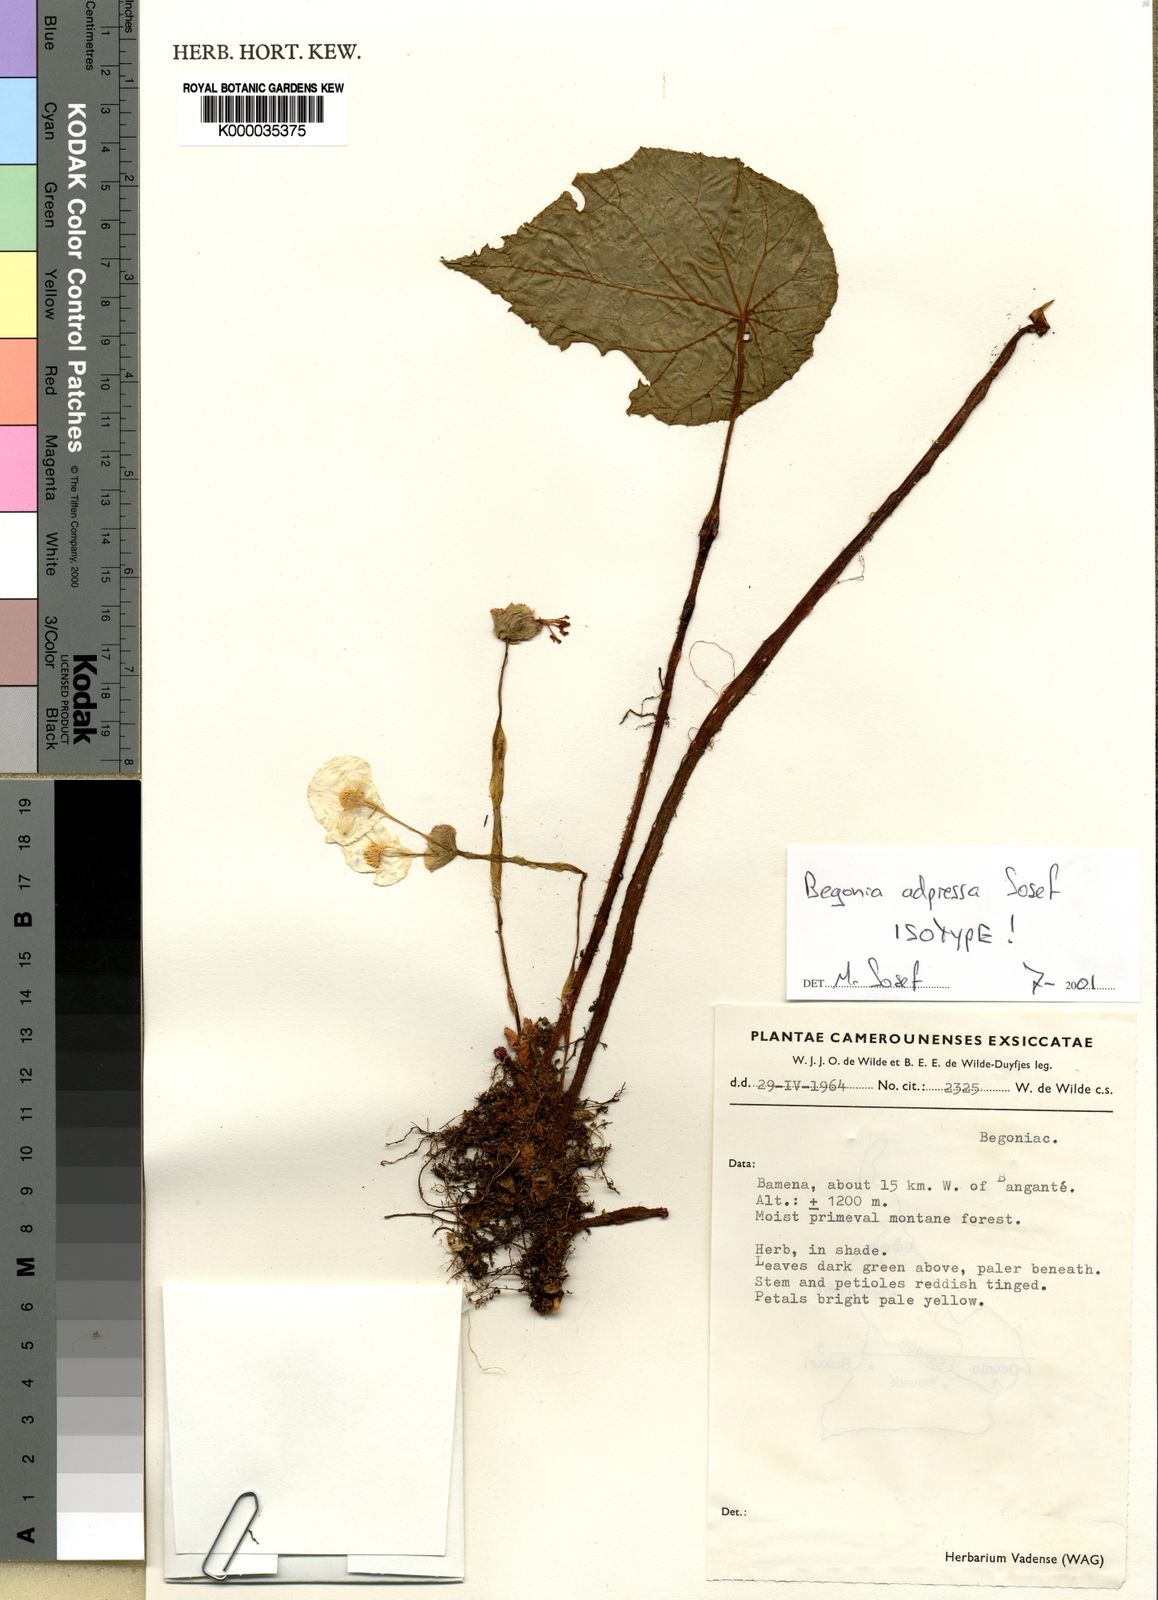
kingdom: Plantae
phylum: Tracheophyta
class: Magnoliopsida
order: Cucurbitales
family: Begoniaceae
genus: Begonia
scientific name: Begonia adpressa
